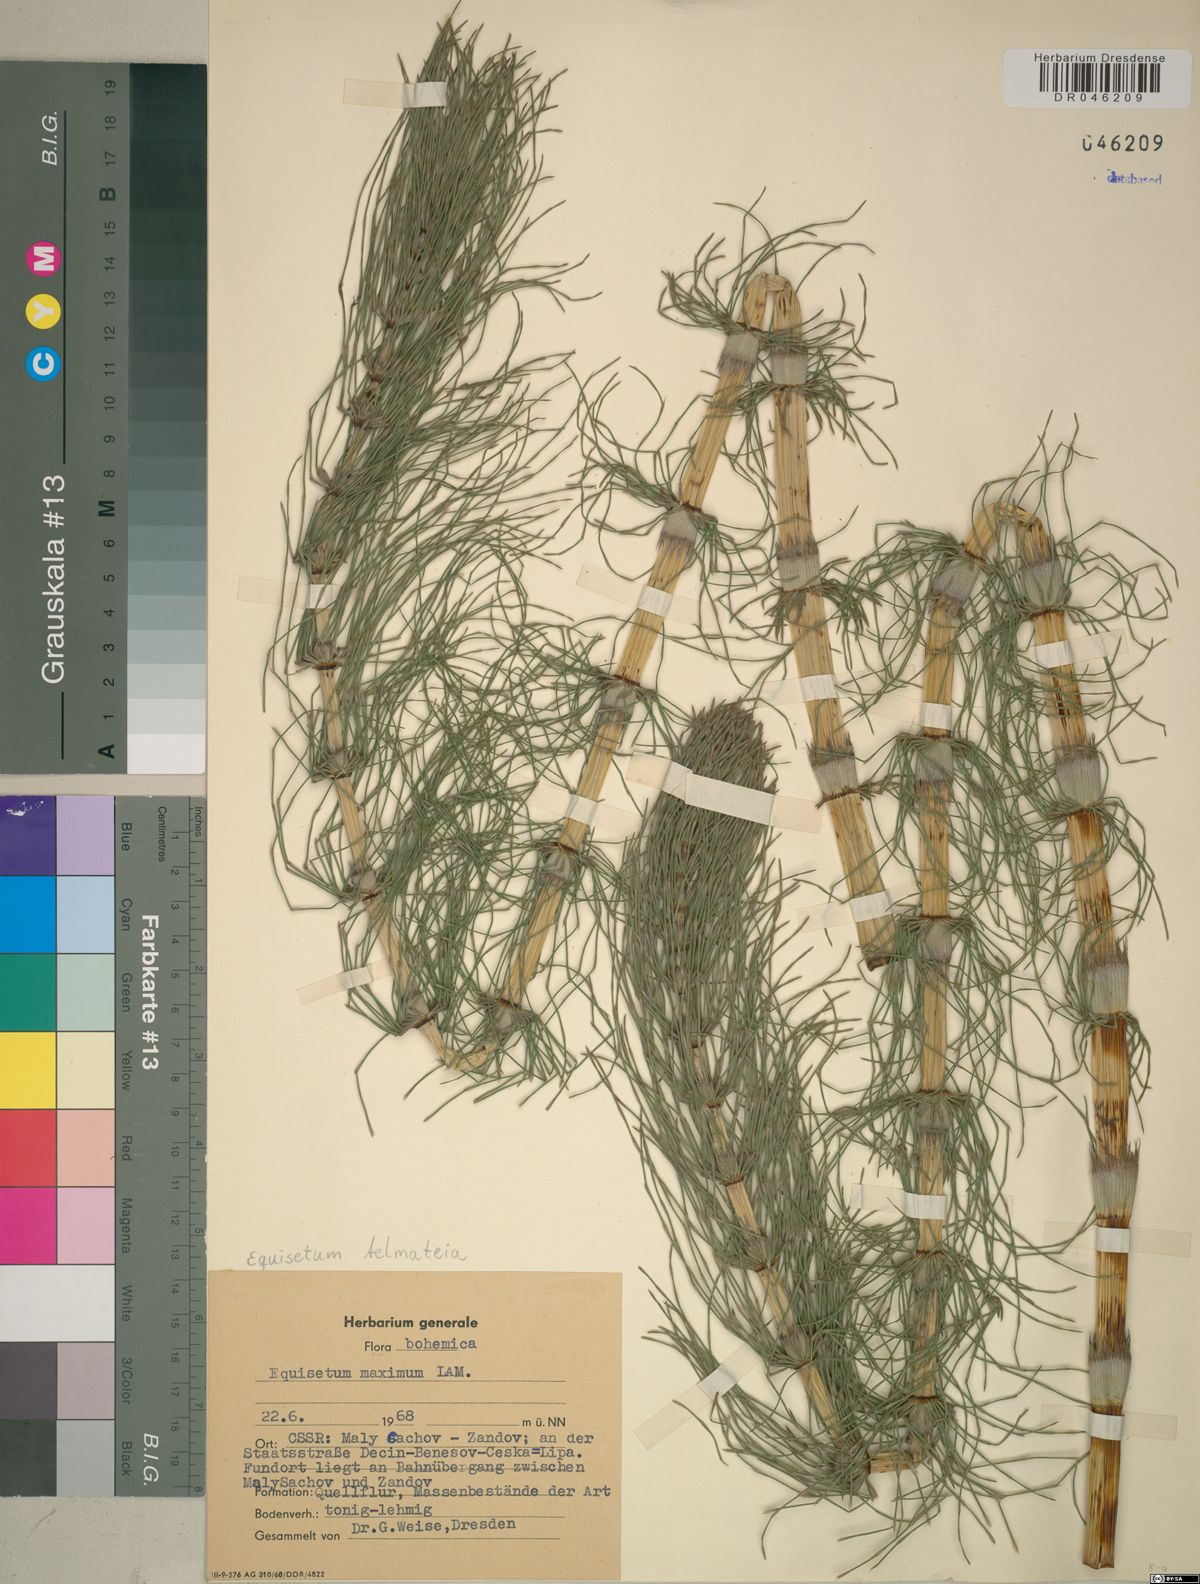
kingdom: Plantae
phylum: Tracheophyta
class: Polypodiopsida
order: Equisetales
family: Equisetaceae
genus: Equisetum
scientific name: Equisetum telmateia
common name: Great horsetail
